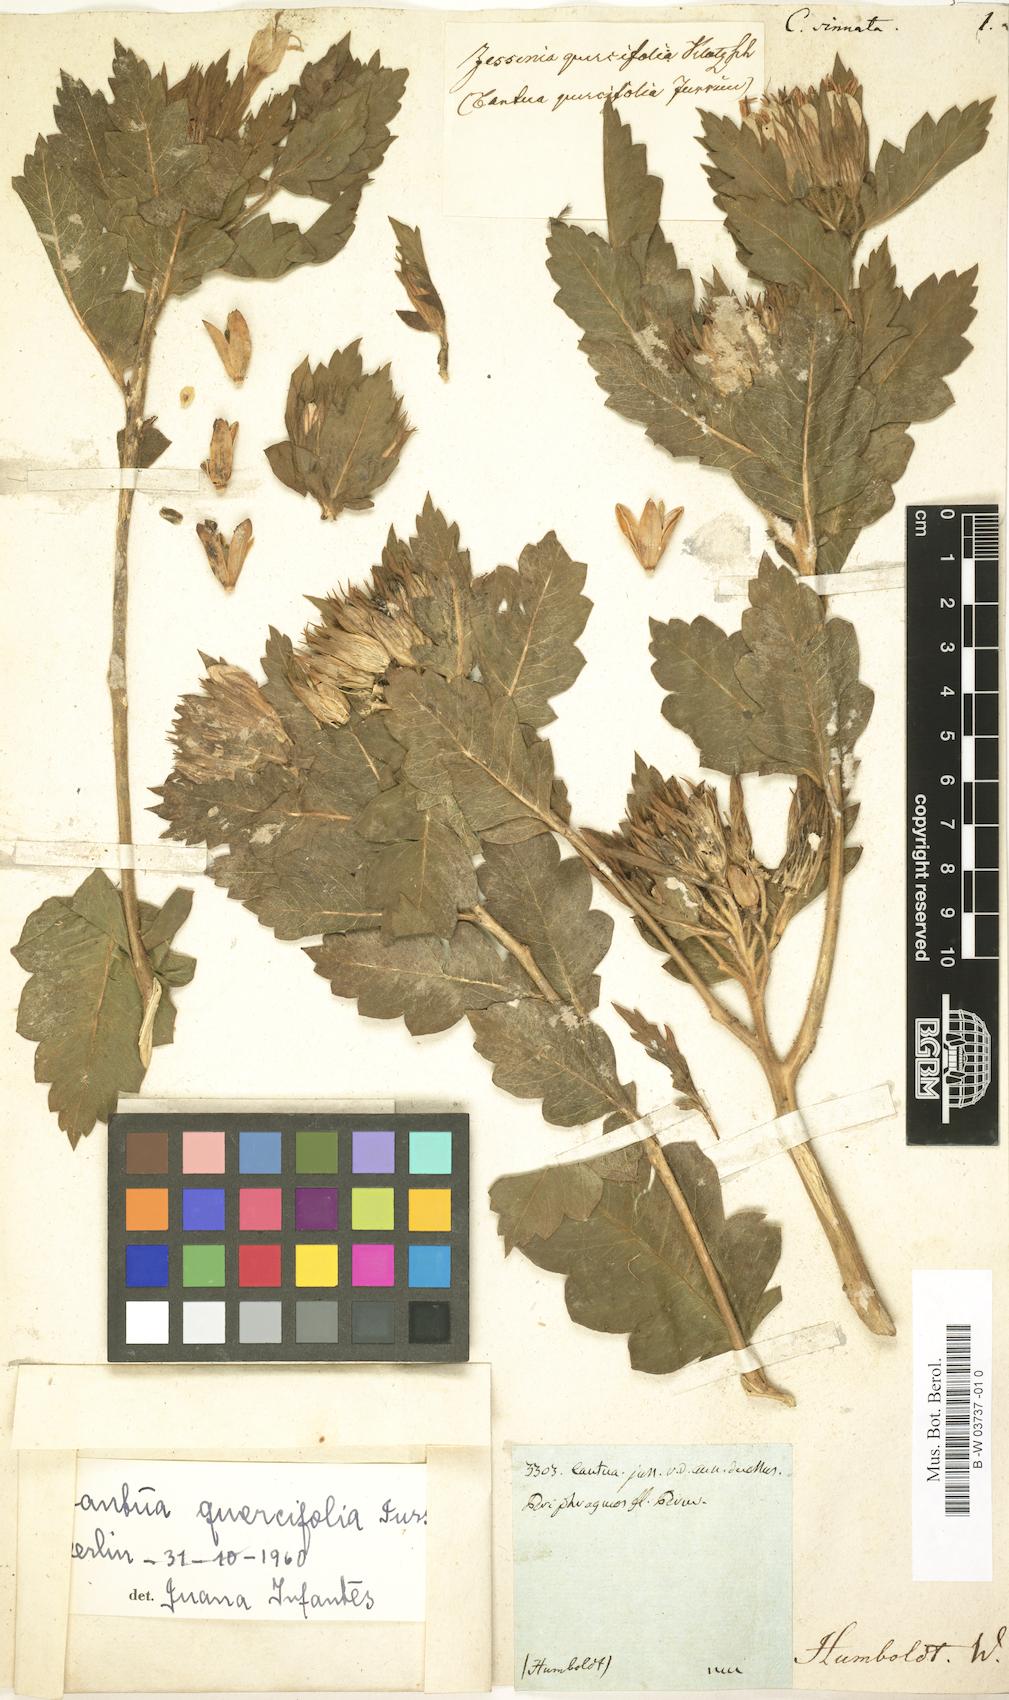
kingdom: Plantae
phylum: Tracheophyta
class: Magnoliopsida
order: Ericales
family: Polemoniaceae
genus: Cantua
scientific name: Cantua quercifolia
